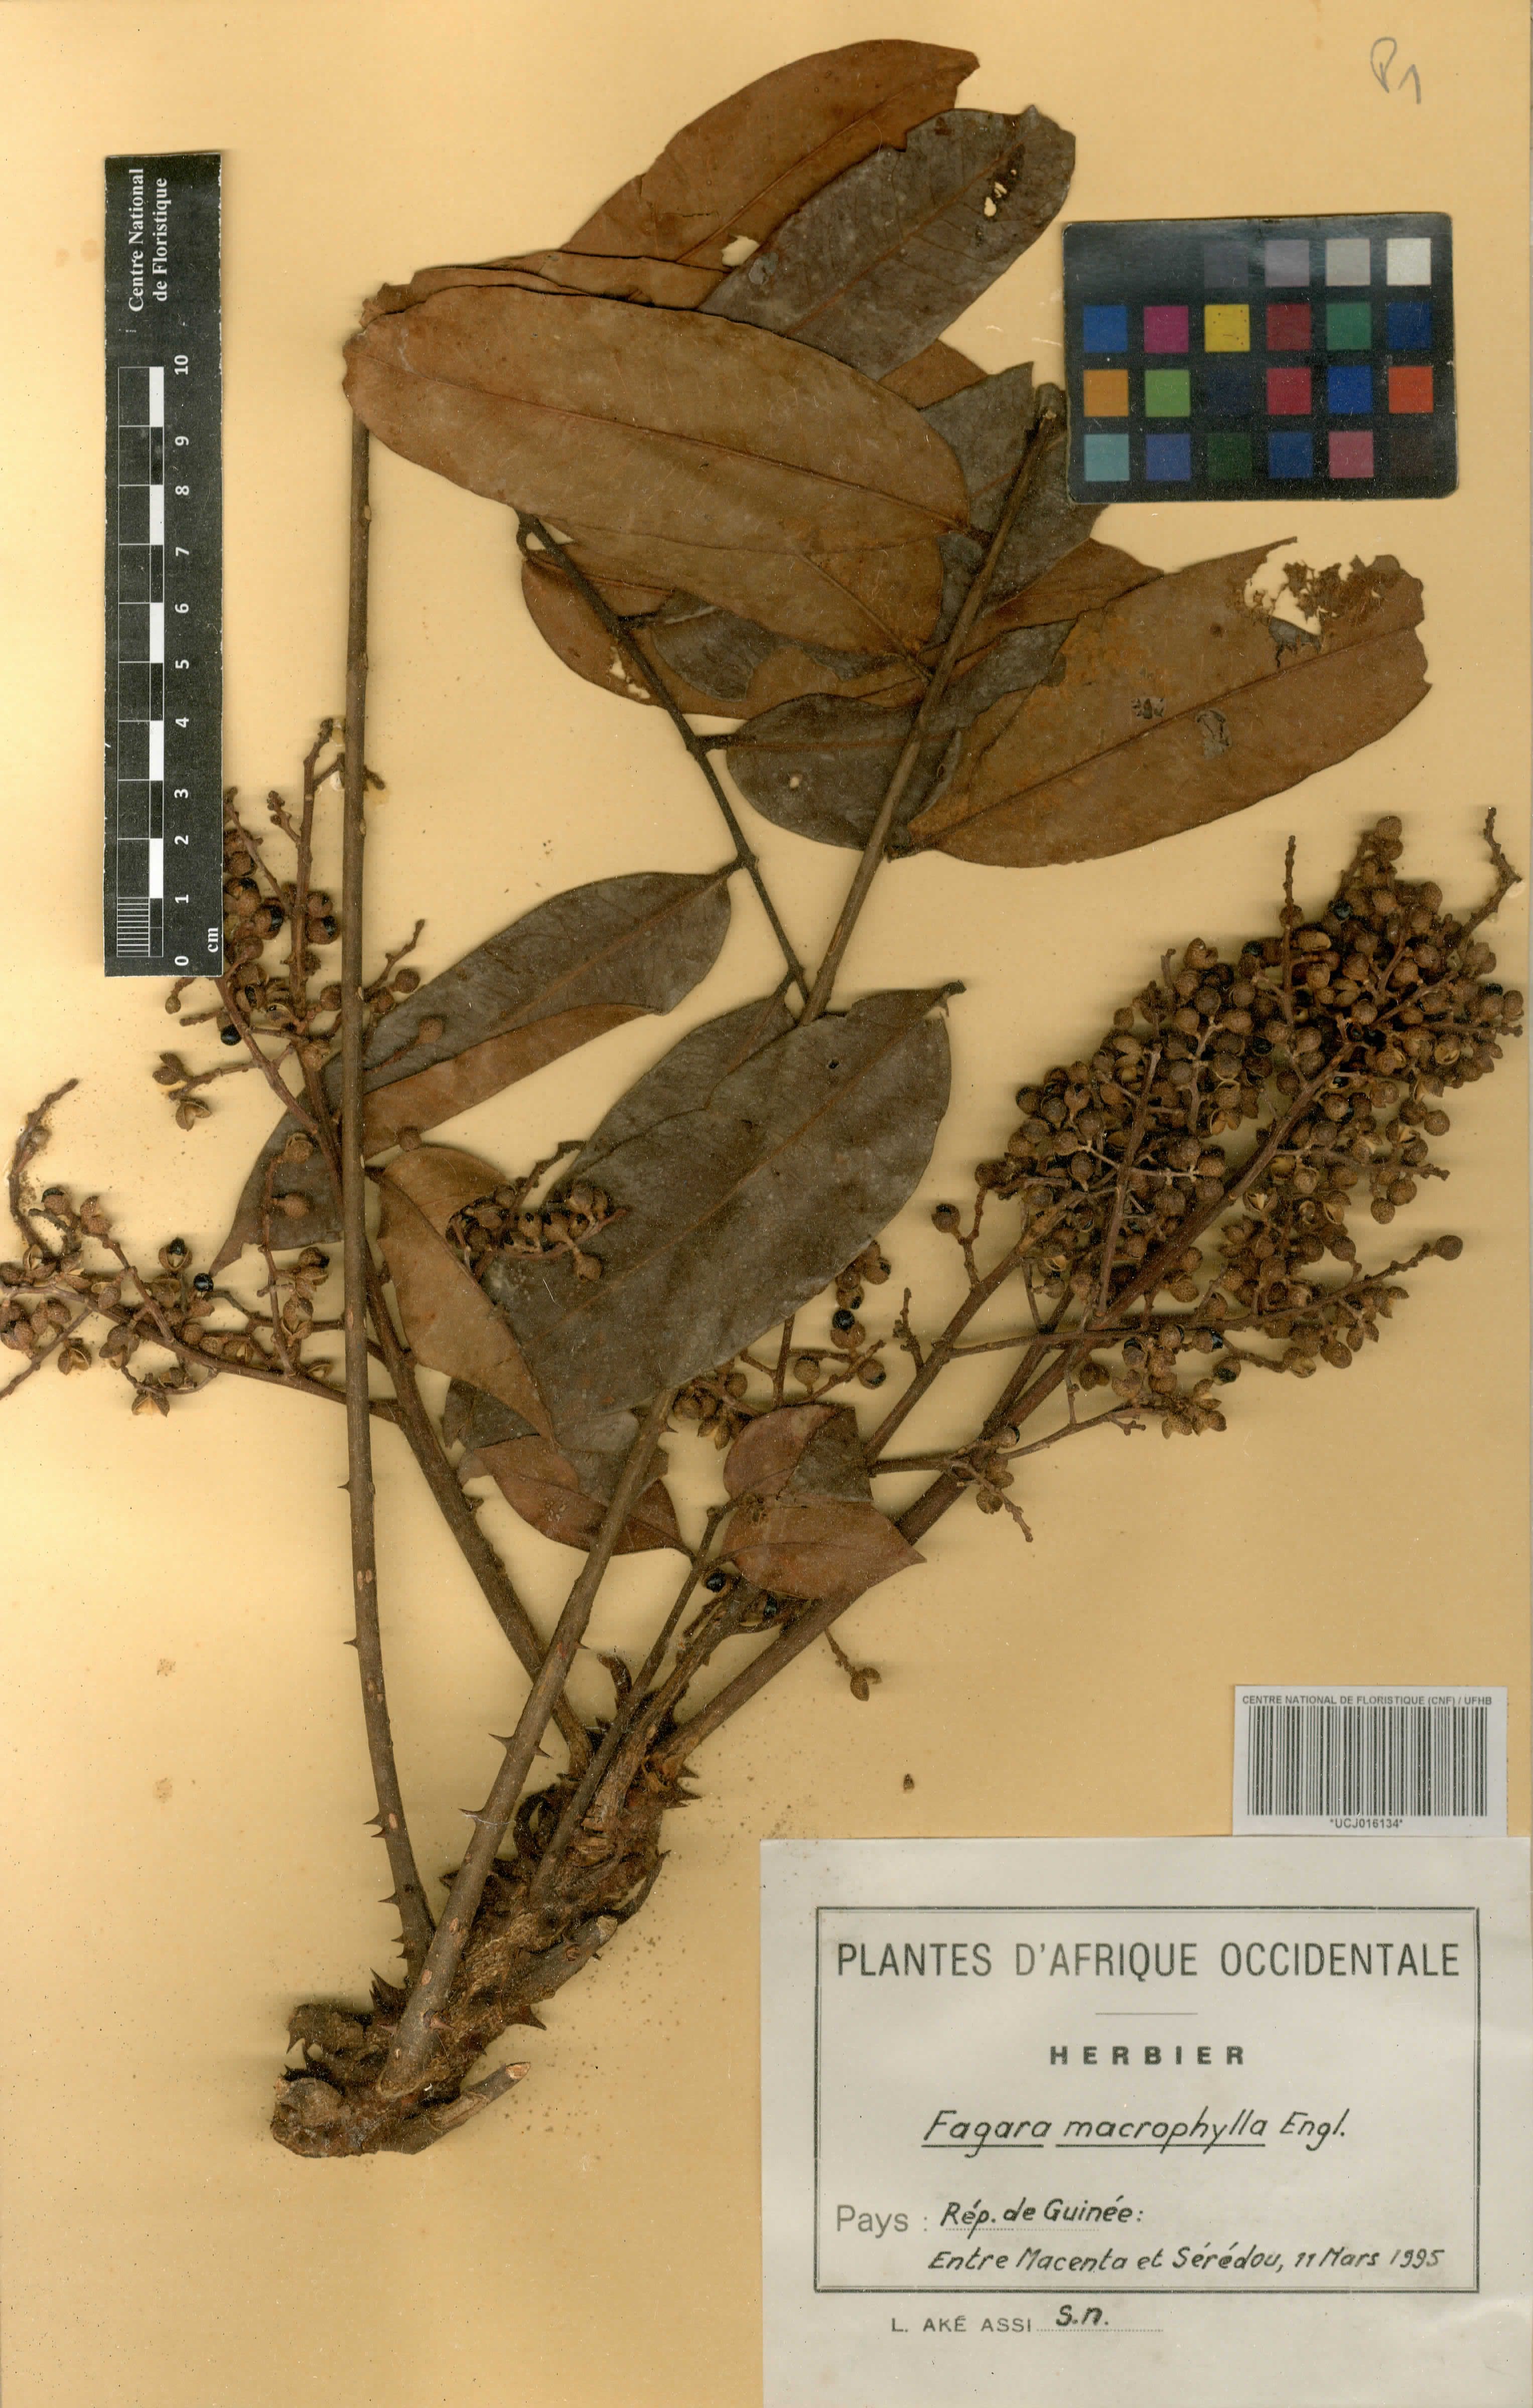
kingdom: Plantae
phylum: Tracheophyta
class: Magnoliopsida
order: Sapindales
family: Rutaceae
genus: Zanthoxylum
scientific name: Zanthoxylum gilletii
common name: African satinwood
